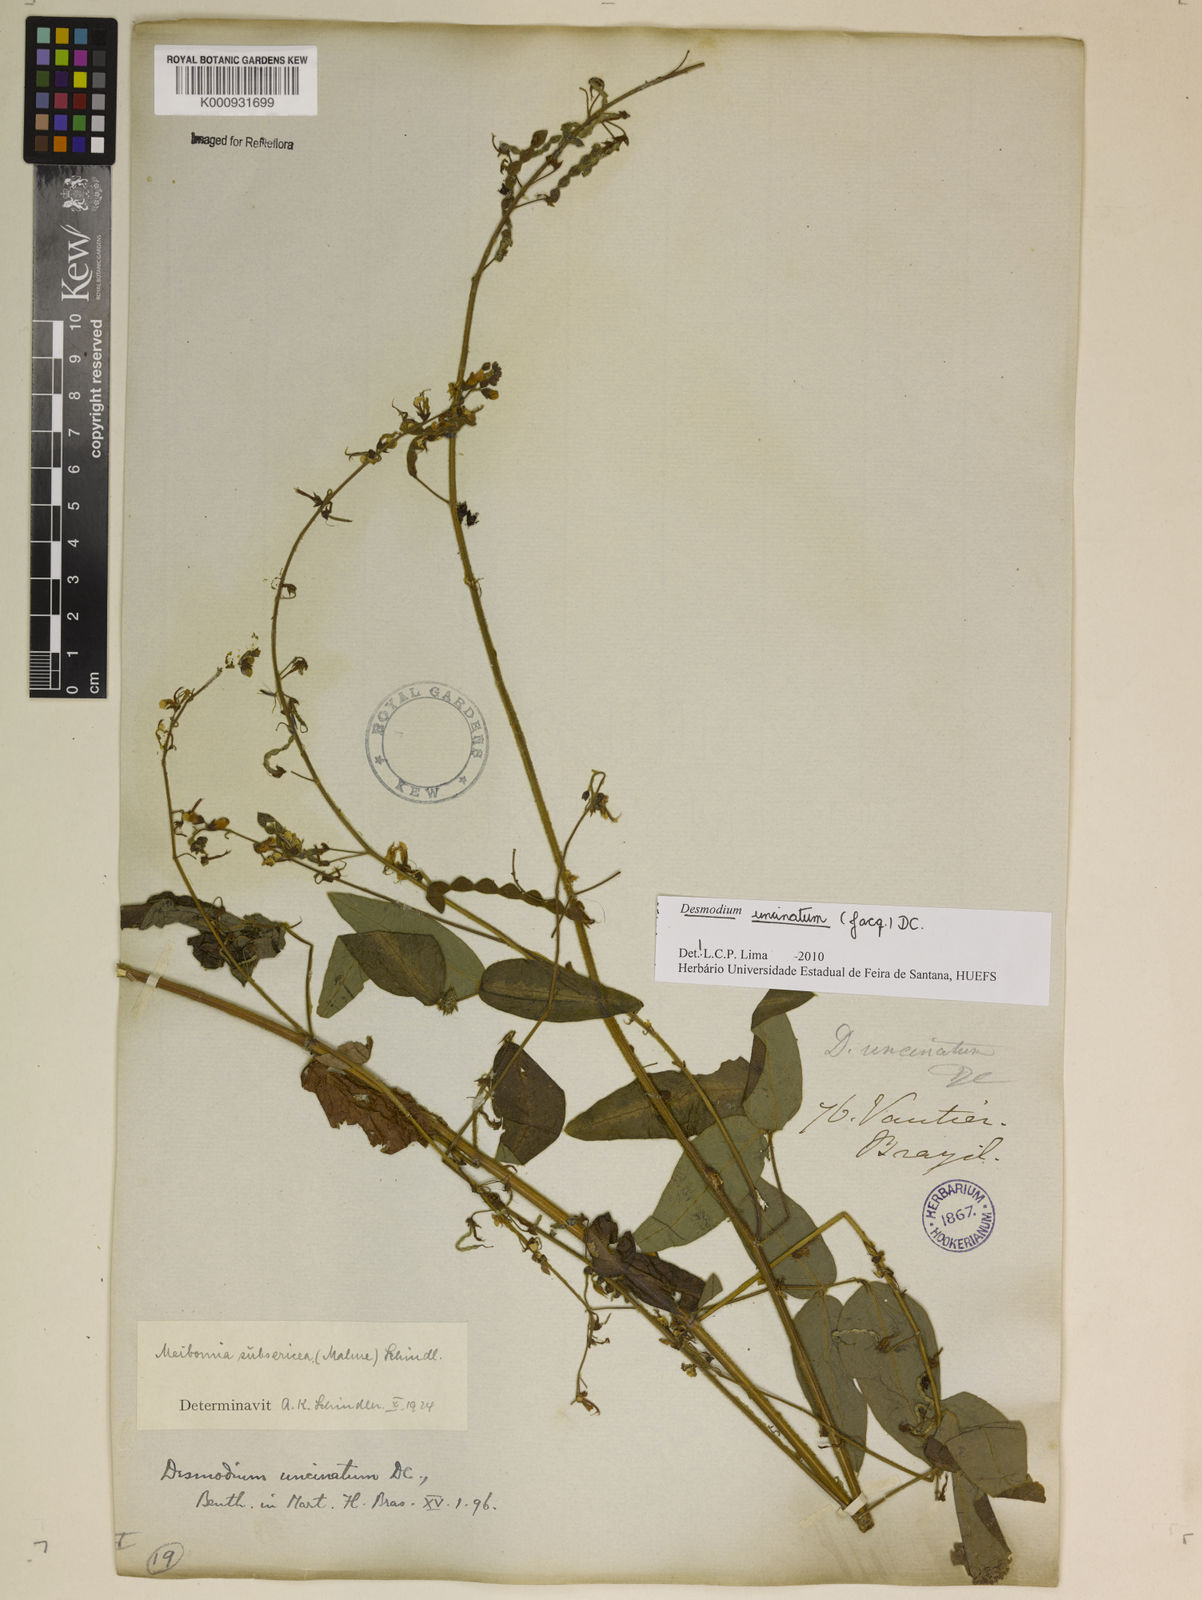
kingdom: Plantae
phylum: Tracheophyta
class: Magnoliopsida
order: Fabales
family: Fabaceae
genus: Desmodium
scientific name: Desmodium uncinatum
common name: Silverleaf desmodium
